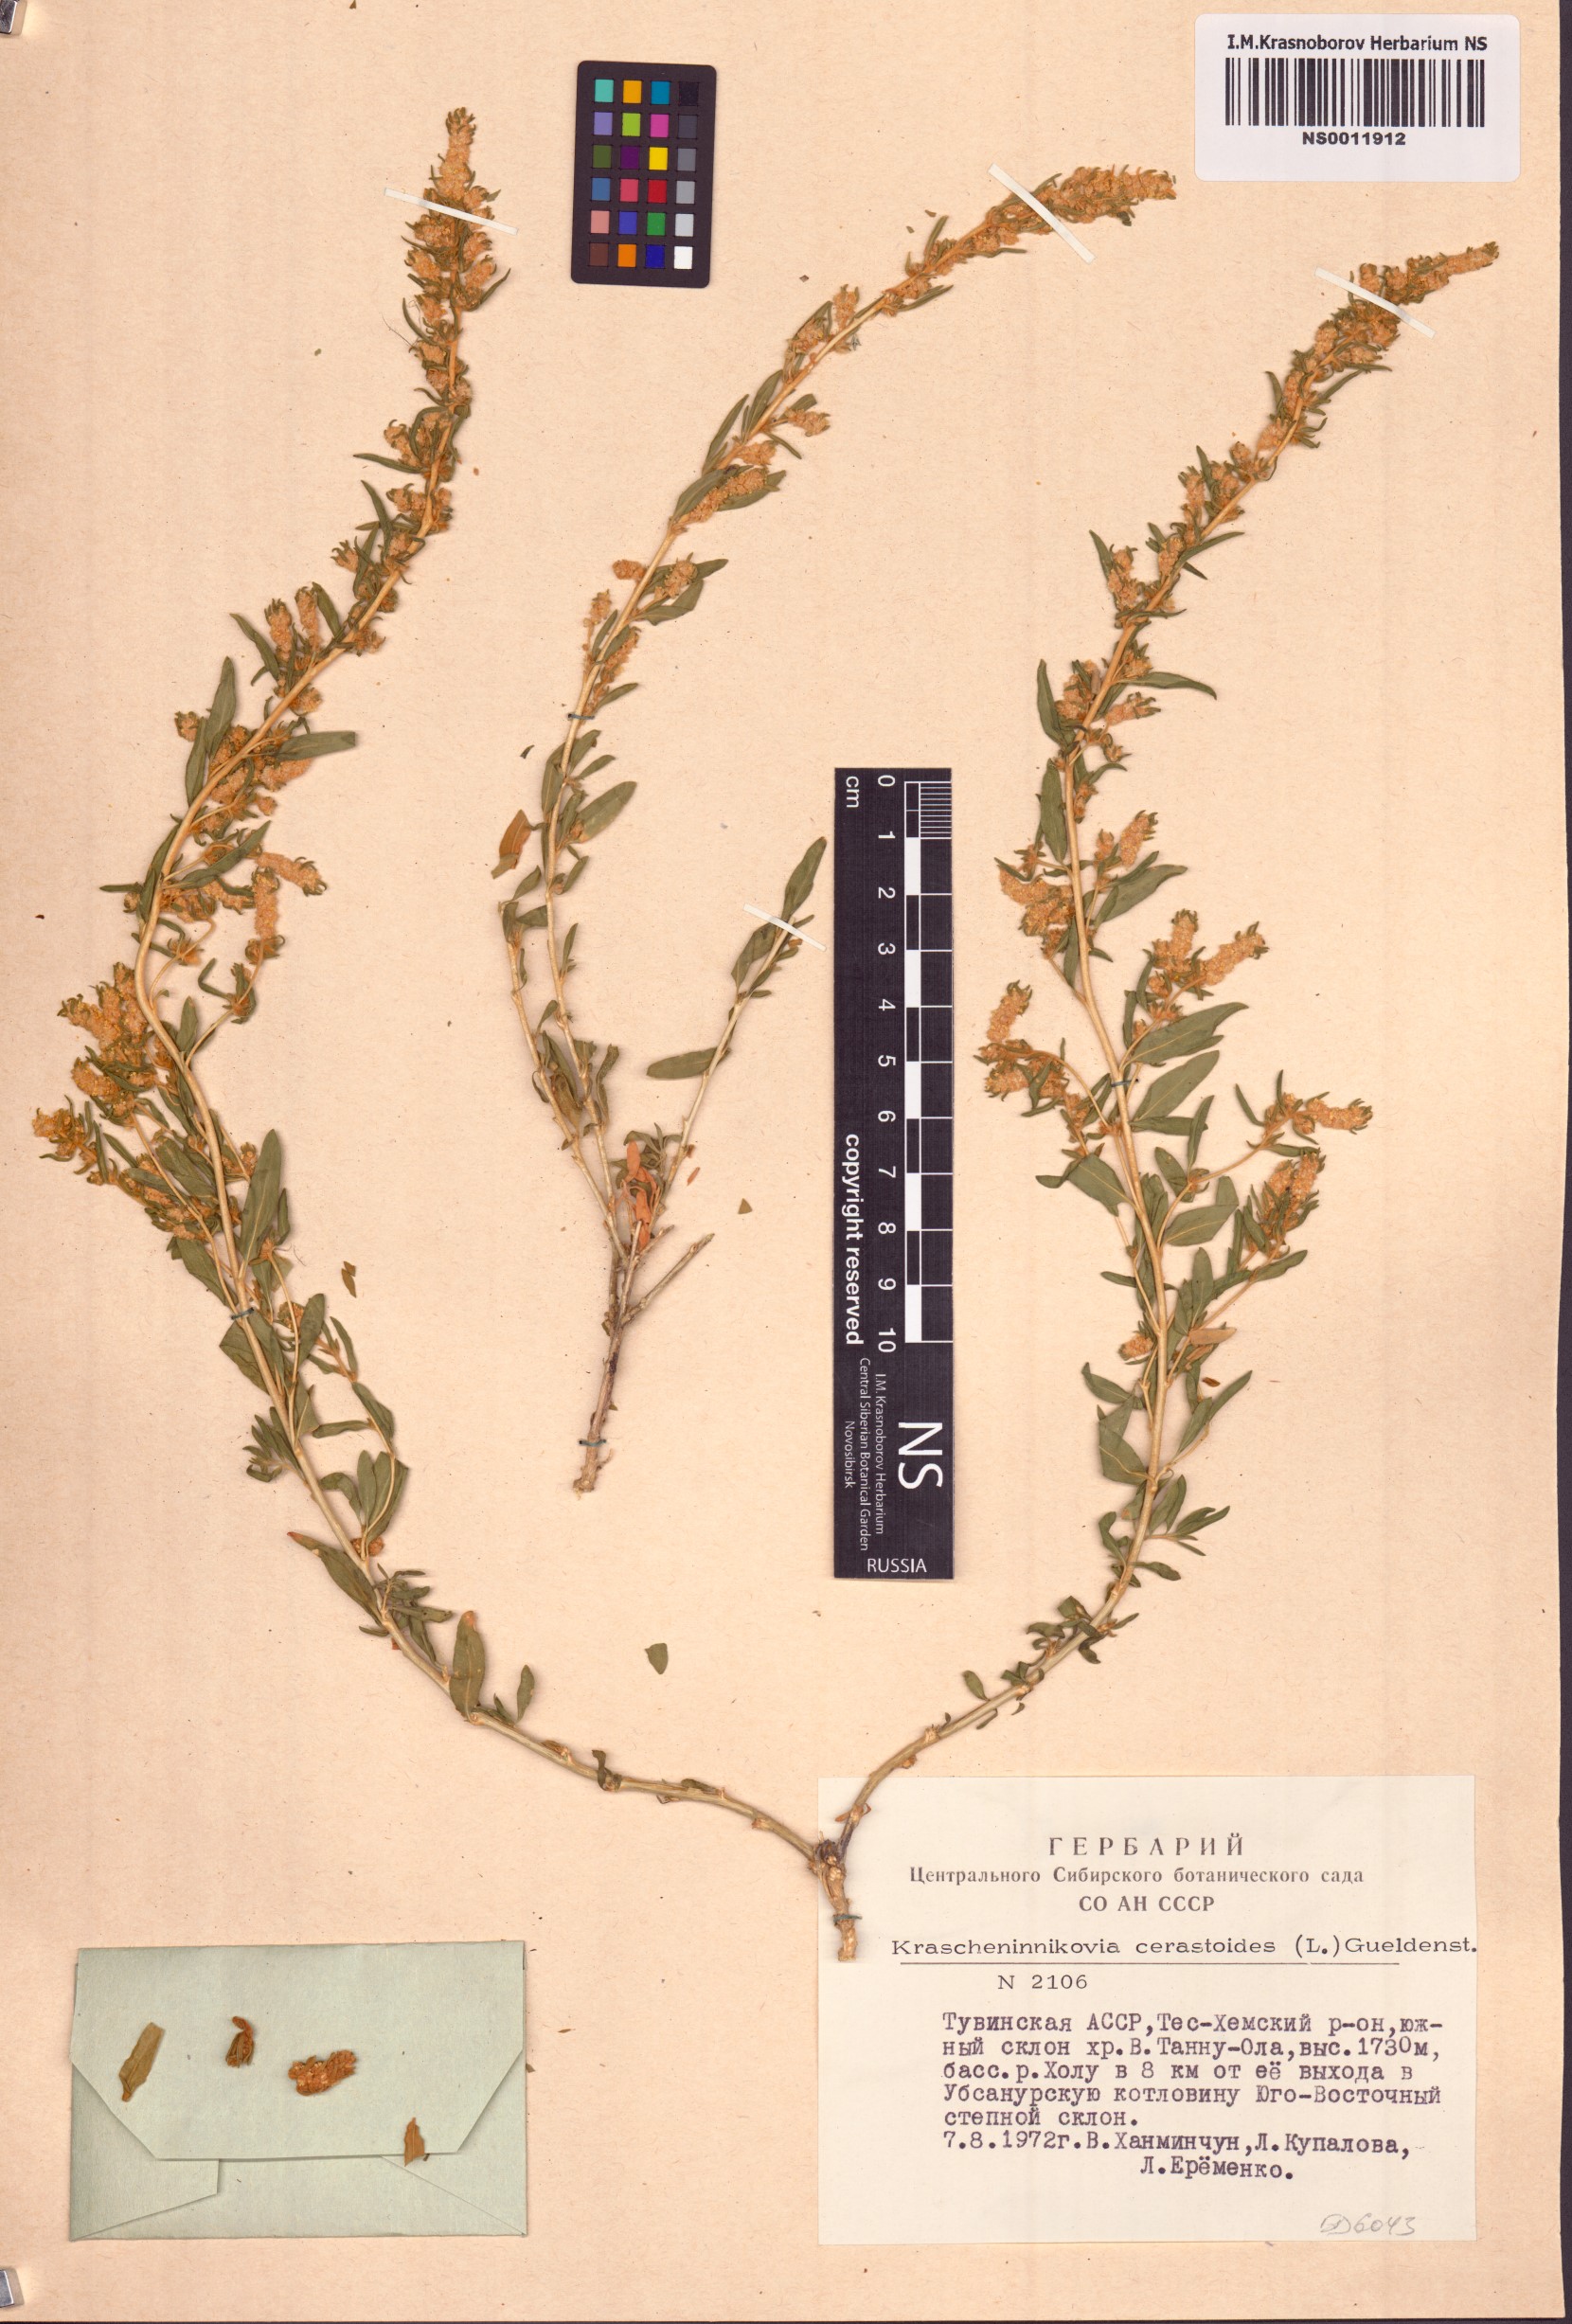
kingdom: Plantae
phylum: Tracheophyta
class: Magnoliopsida
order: Caryophyllales
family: Amaranthaceae
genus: Krascheninnikovia
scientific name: Krascheninnikovia ceratoides
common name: Pamirian winterfat
